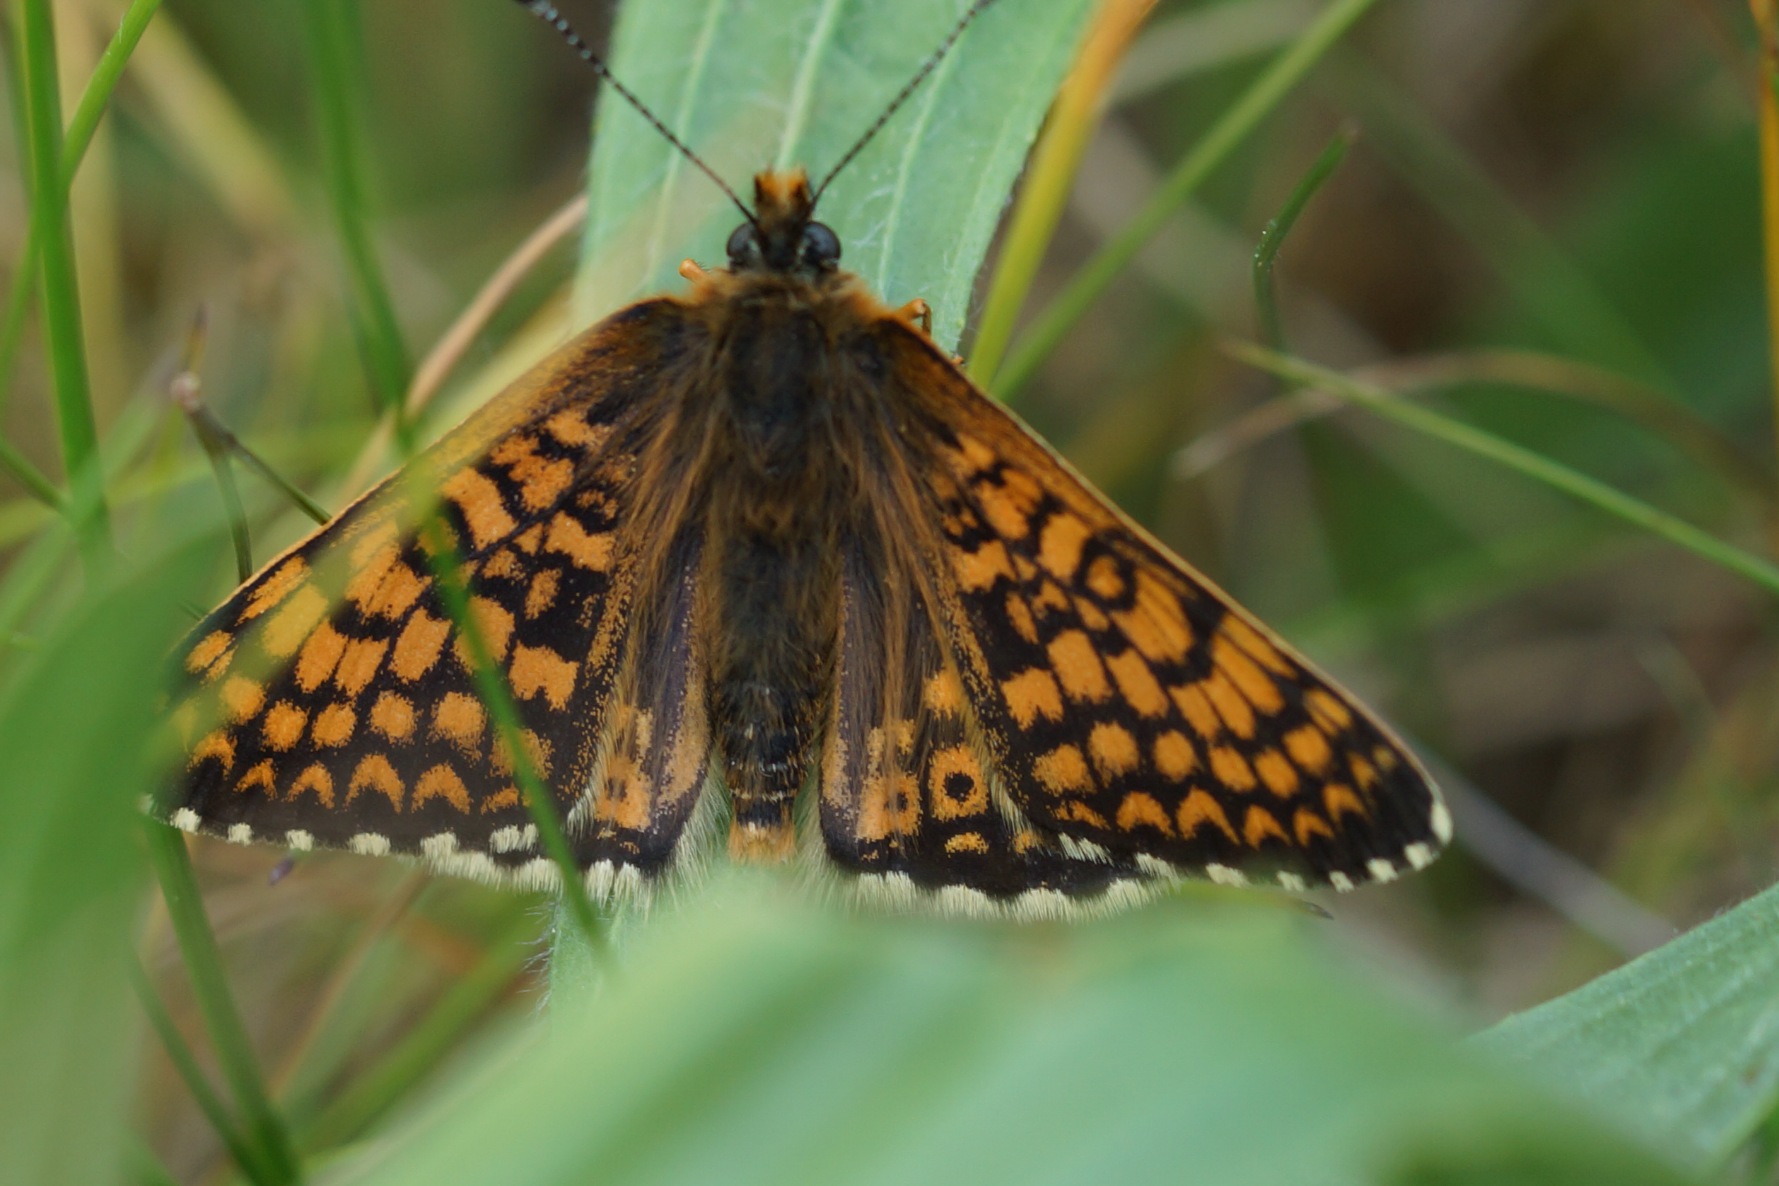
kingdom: Animalia
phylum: Arthropoda
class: Insecta
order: Lepidoptera
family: Nymphalidae
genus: Melitaea
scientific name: Melitaea cinxia
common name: Okkergul pletvinge
